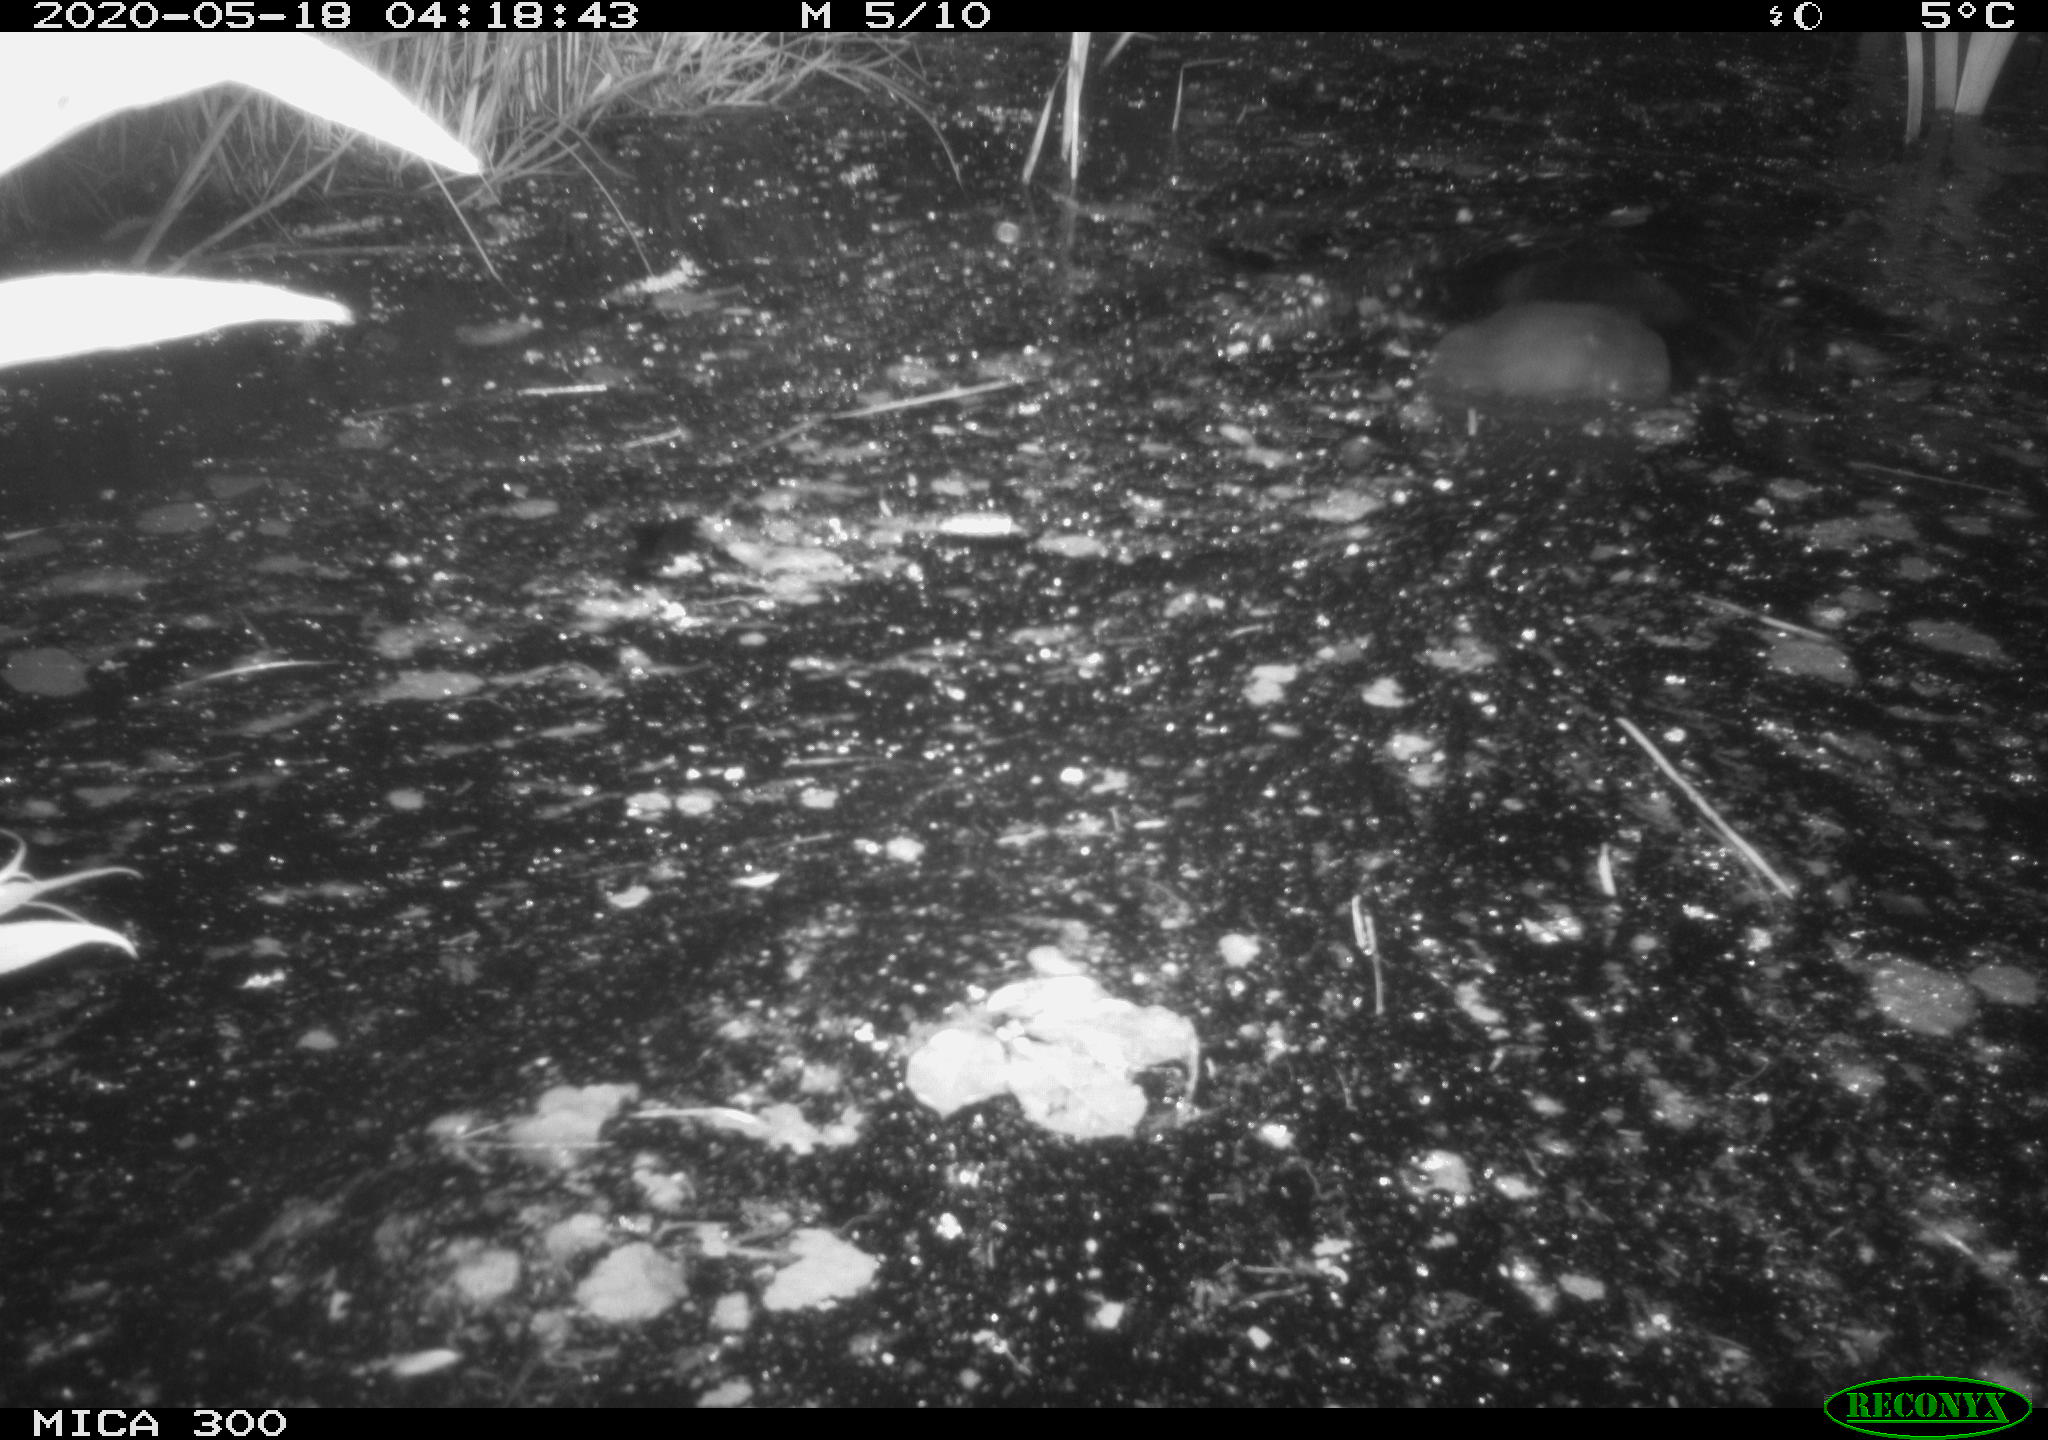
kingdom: Animalia
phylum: Chordata
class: Mammalia
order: Rodentia
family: Castoridae
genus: Castor
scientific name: Castor fiber
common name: Eurasian beaver
